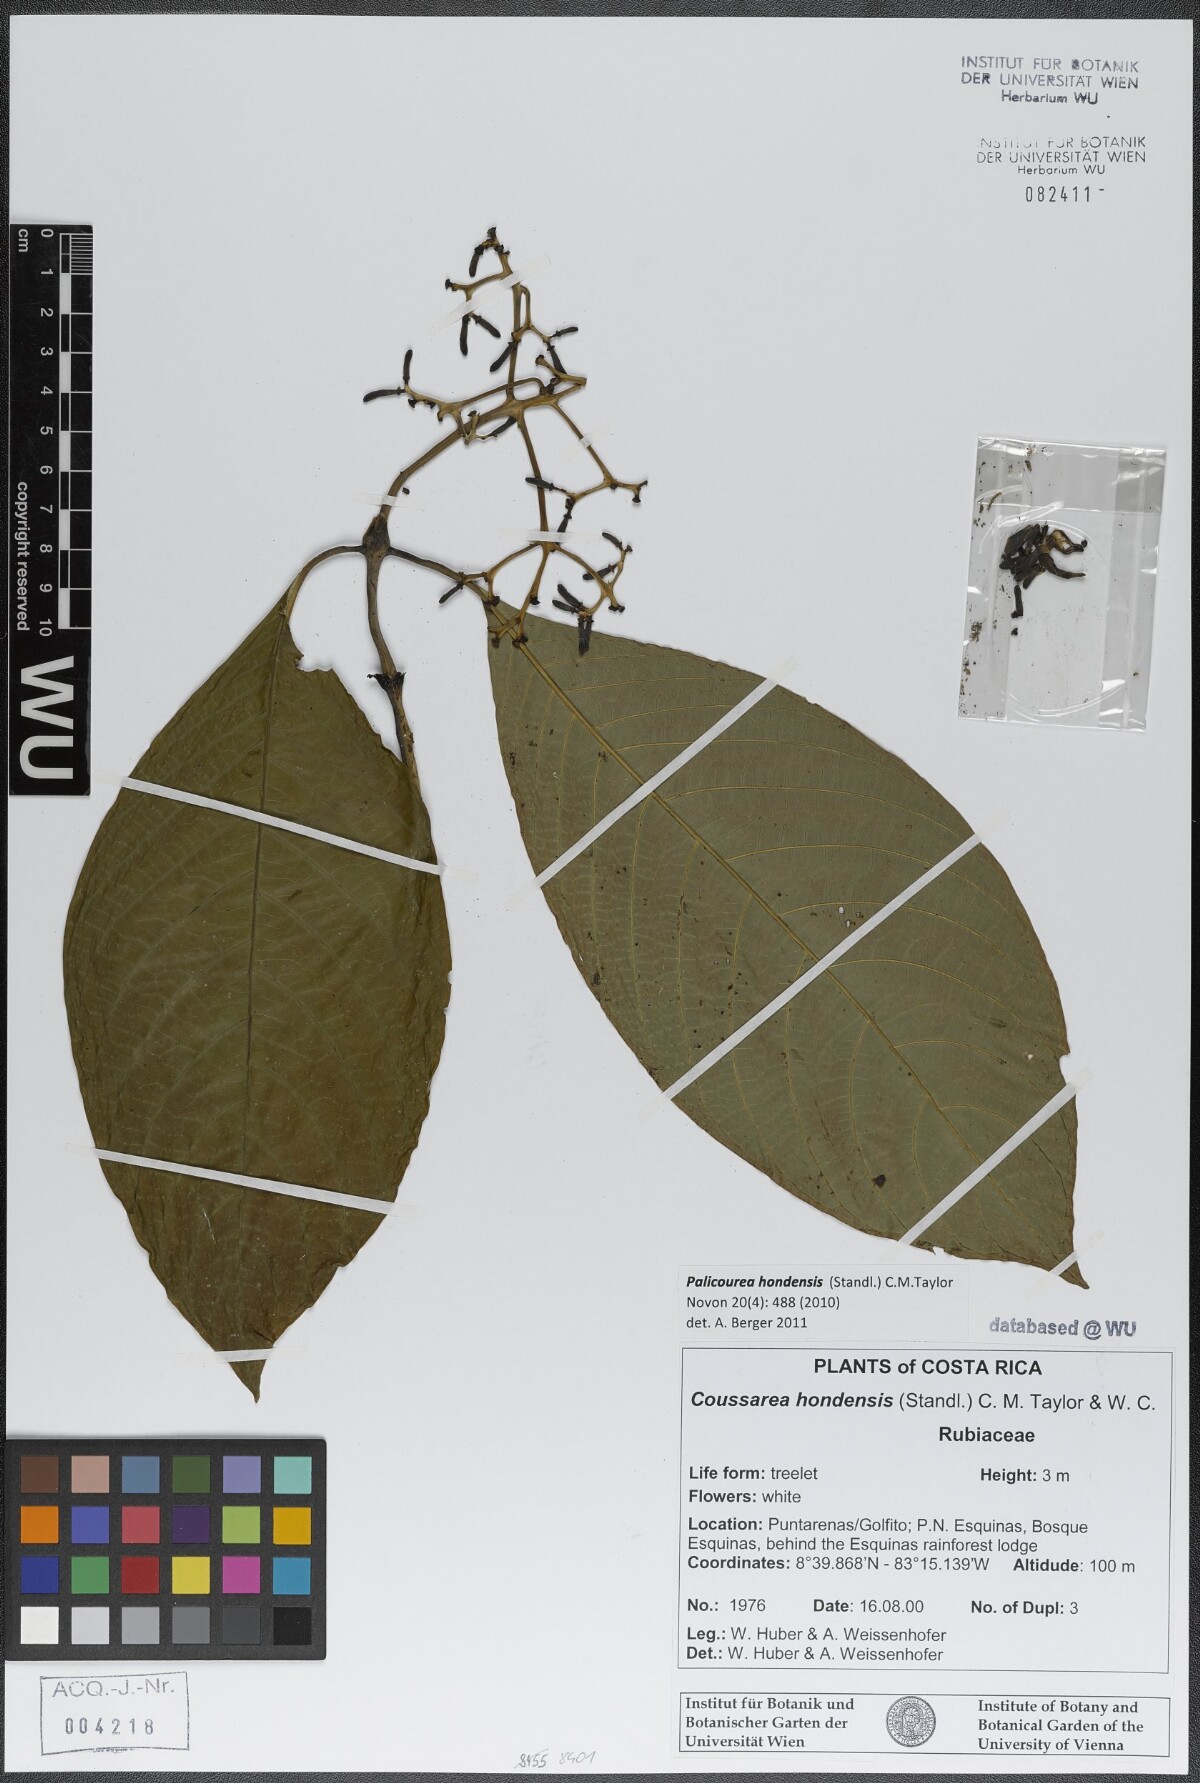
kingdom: Plantae
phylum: Tracheophyta
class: Magnoliopsida
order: Gentianales
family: Rubiaceae
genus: Palicourea
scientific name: Palicourea hondensis
